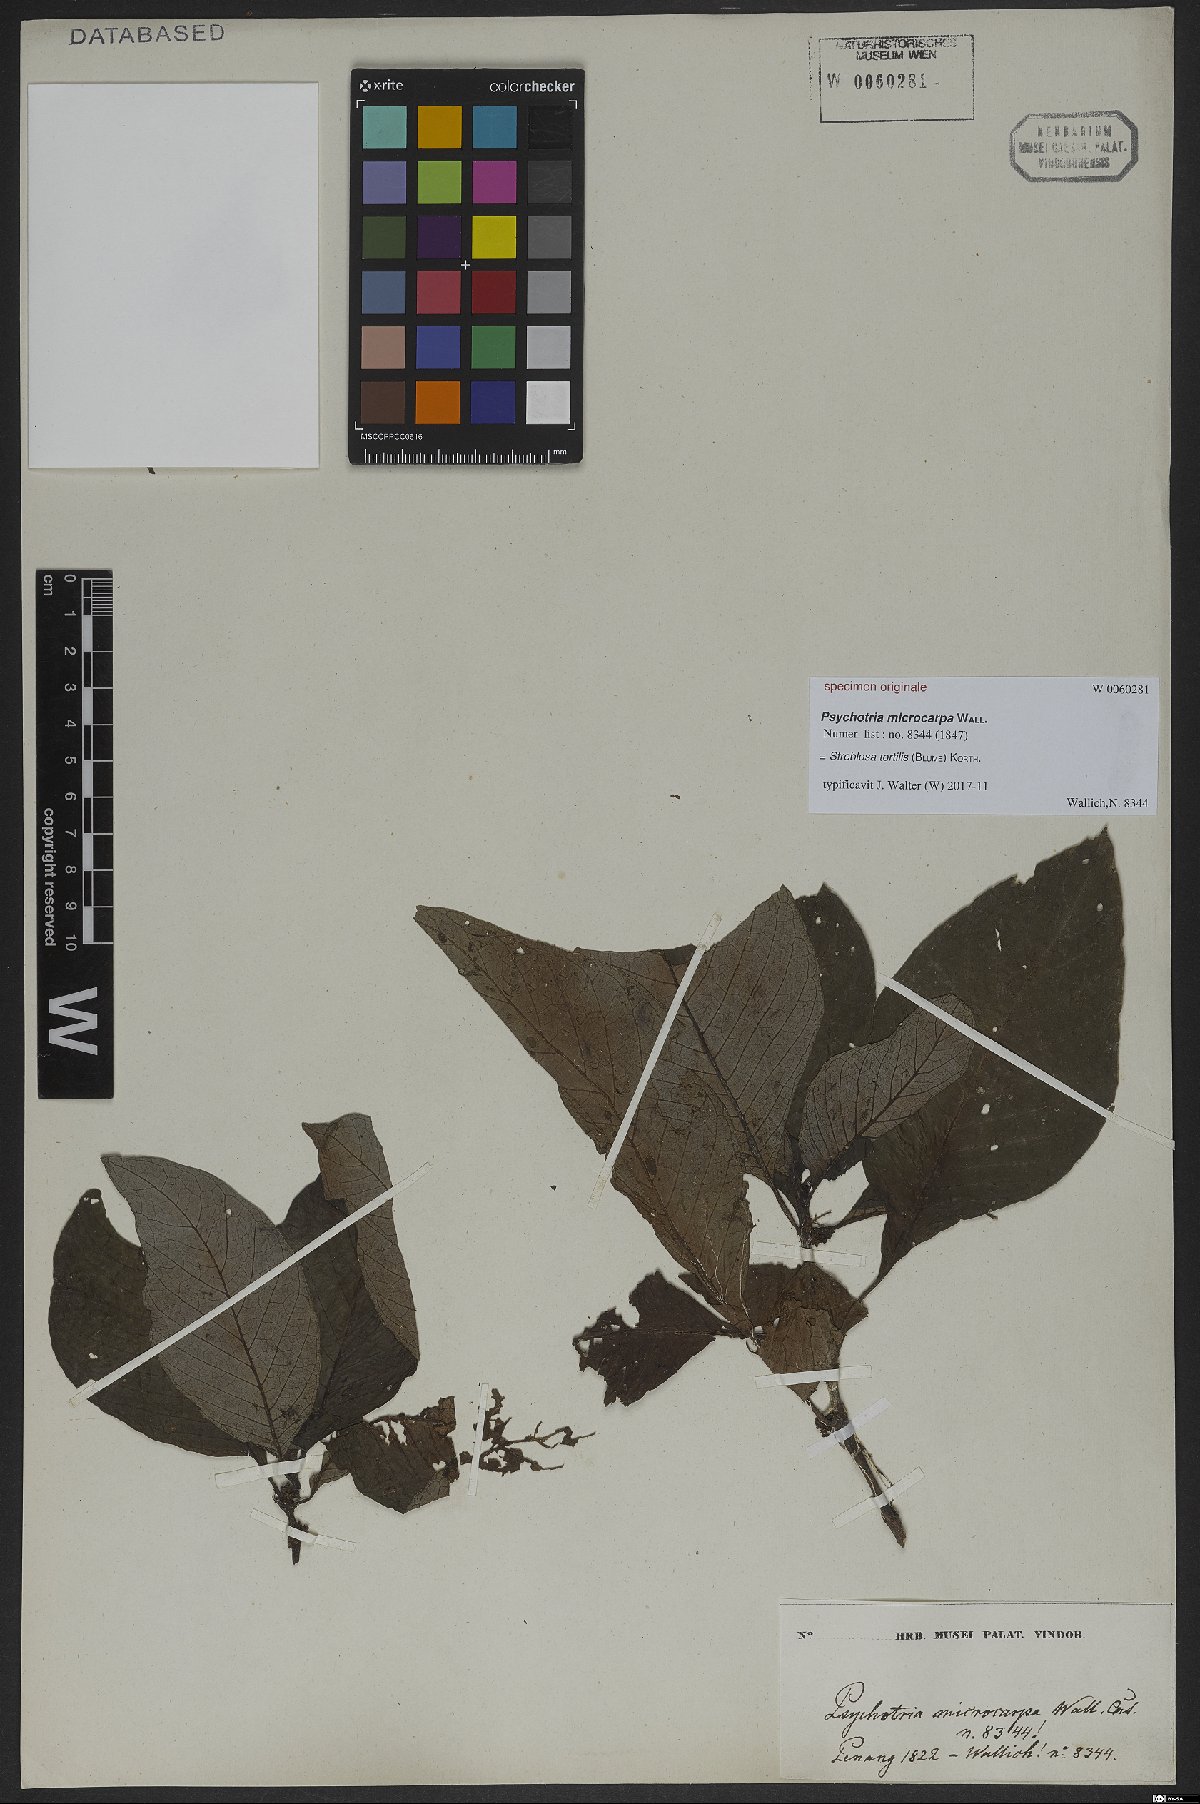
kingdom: Plantae
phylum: Tracheophyta
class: Magnoliopsida
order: Gentianales
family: Rubiaceae
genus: Streblosa
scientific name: Streblosa tortilis
